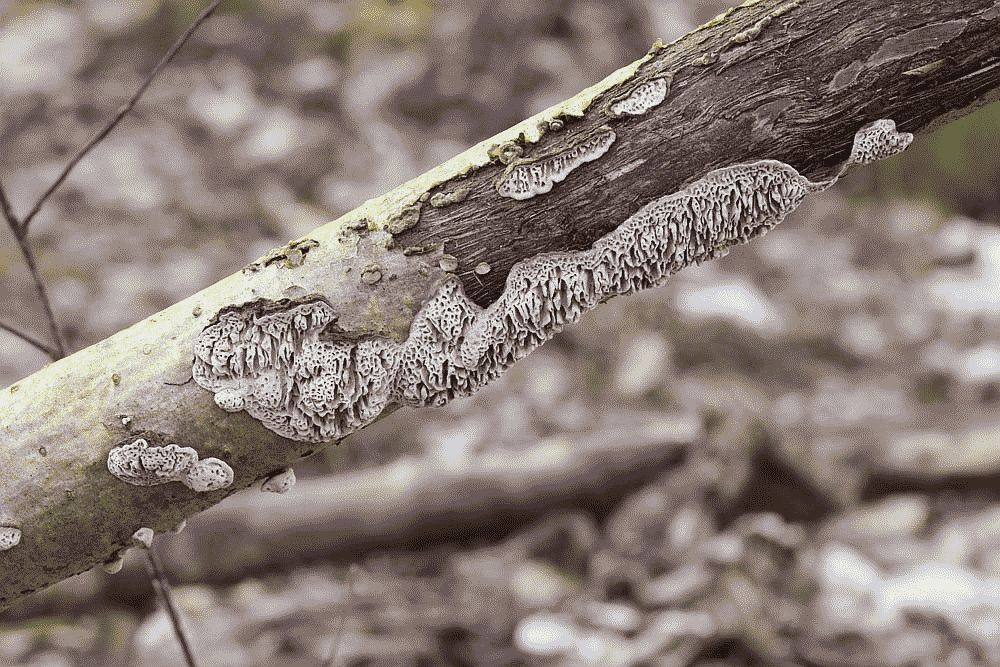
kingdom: Fungi
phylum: Basidiomycota
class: Agaricomycetes
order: Polyporales
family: Polyporaceae
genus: Podofomes
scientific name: Podofomes mollis
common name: blød begporesvamp
